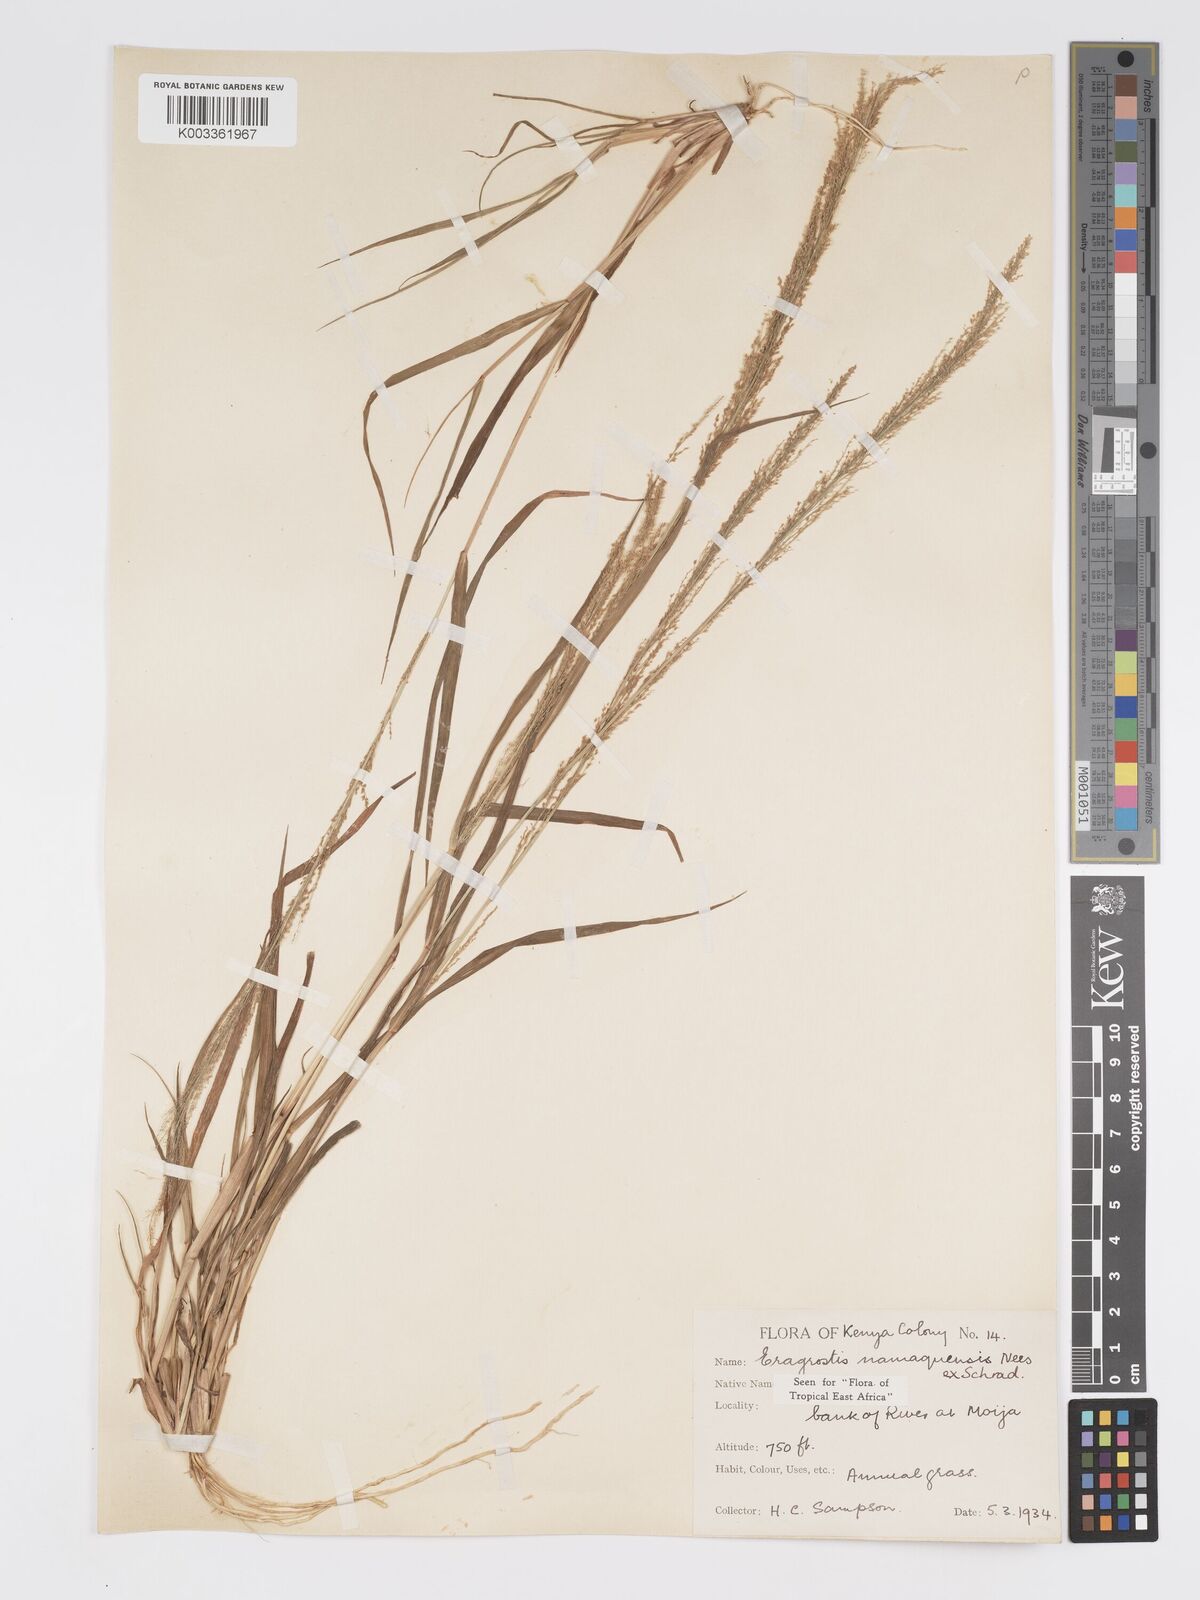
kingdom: Plantae
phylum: Tracheophyta
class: Liliopsida
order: Poales
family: Poaceae
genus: Eragrostis
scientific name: Eragrostis japonica
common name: Pond lovegrass
